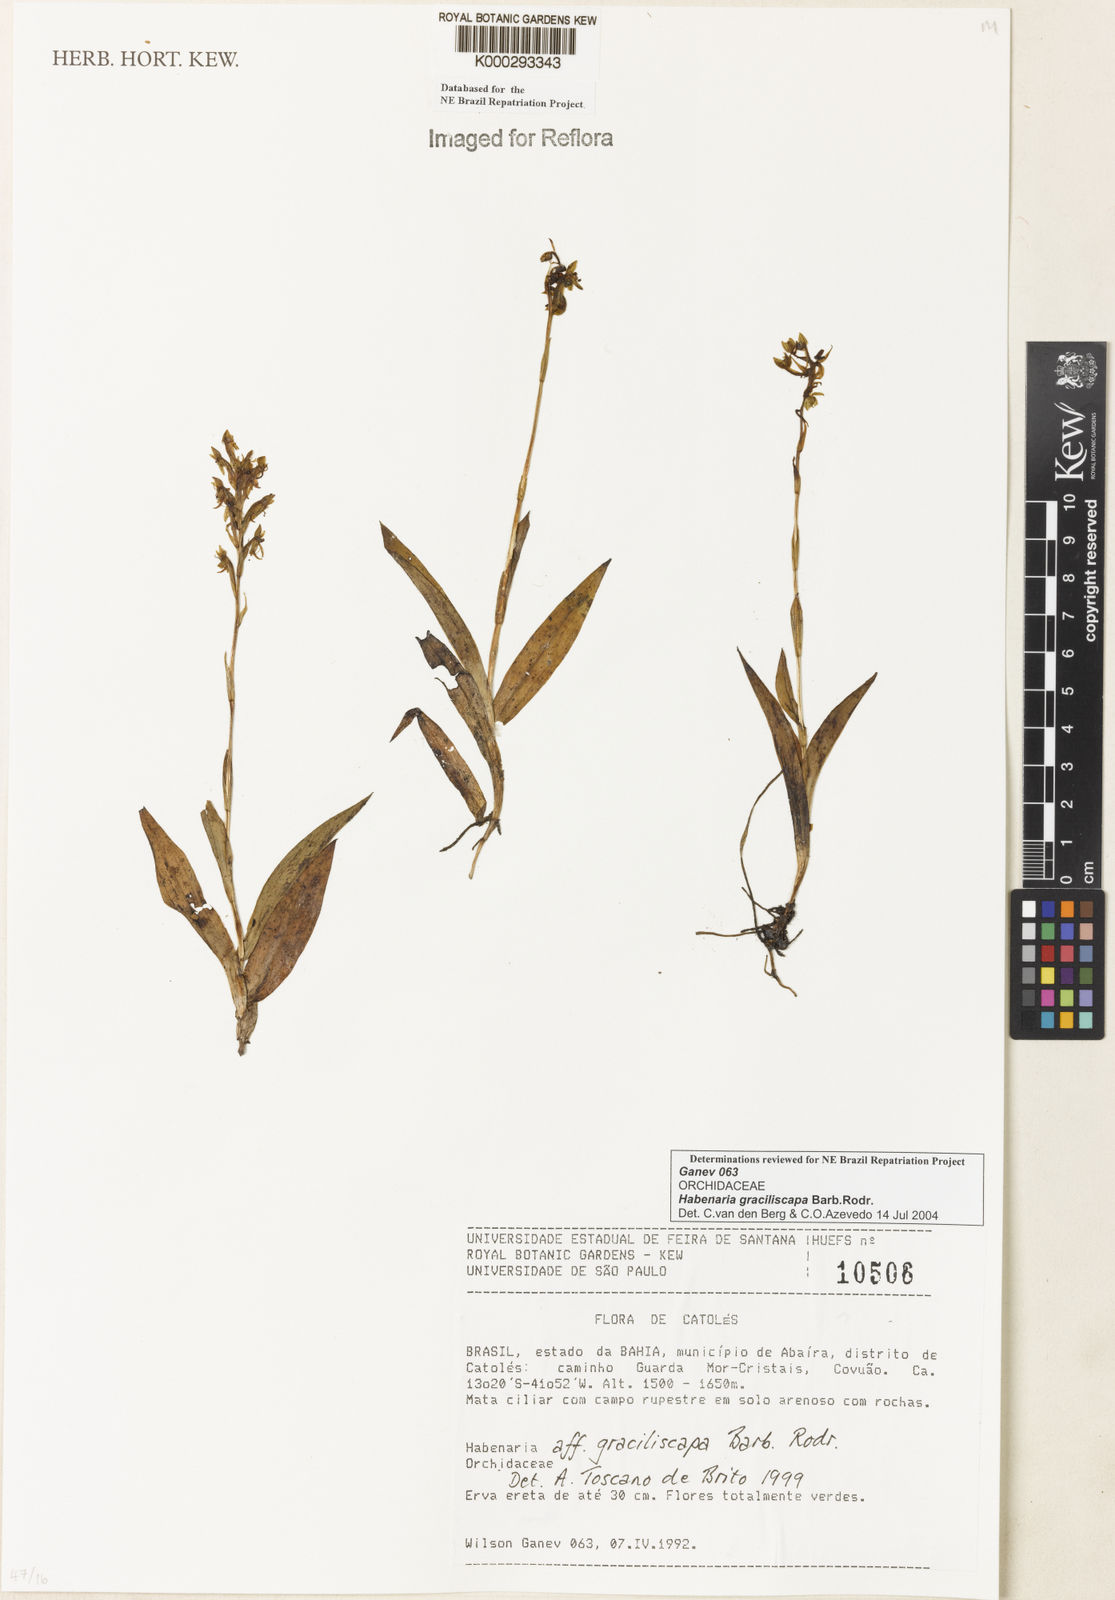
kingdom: Plantae
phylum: Tracheophyta
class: Liliopsida
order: Asparagales
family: Orchidaceae
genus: Habenaria
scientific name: Habenaria imbricata
